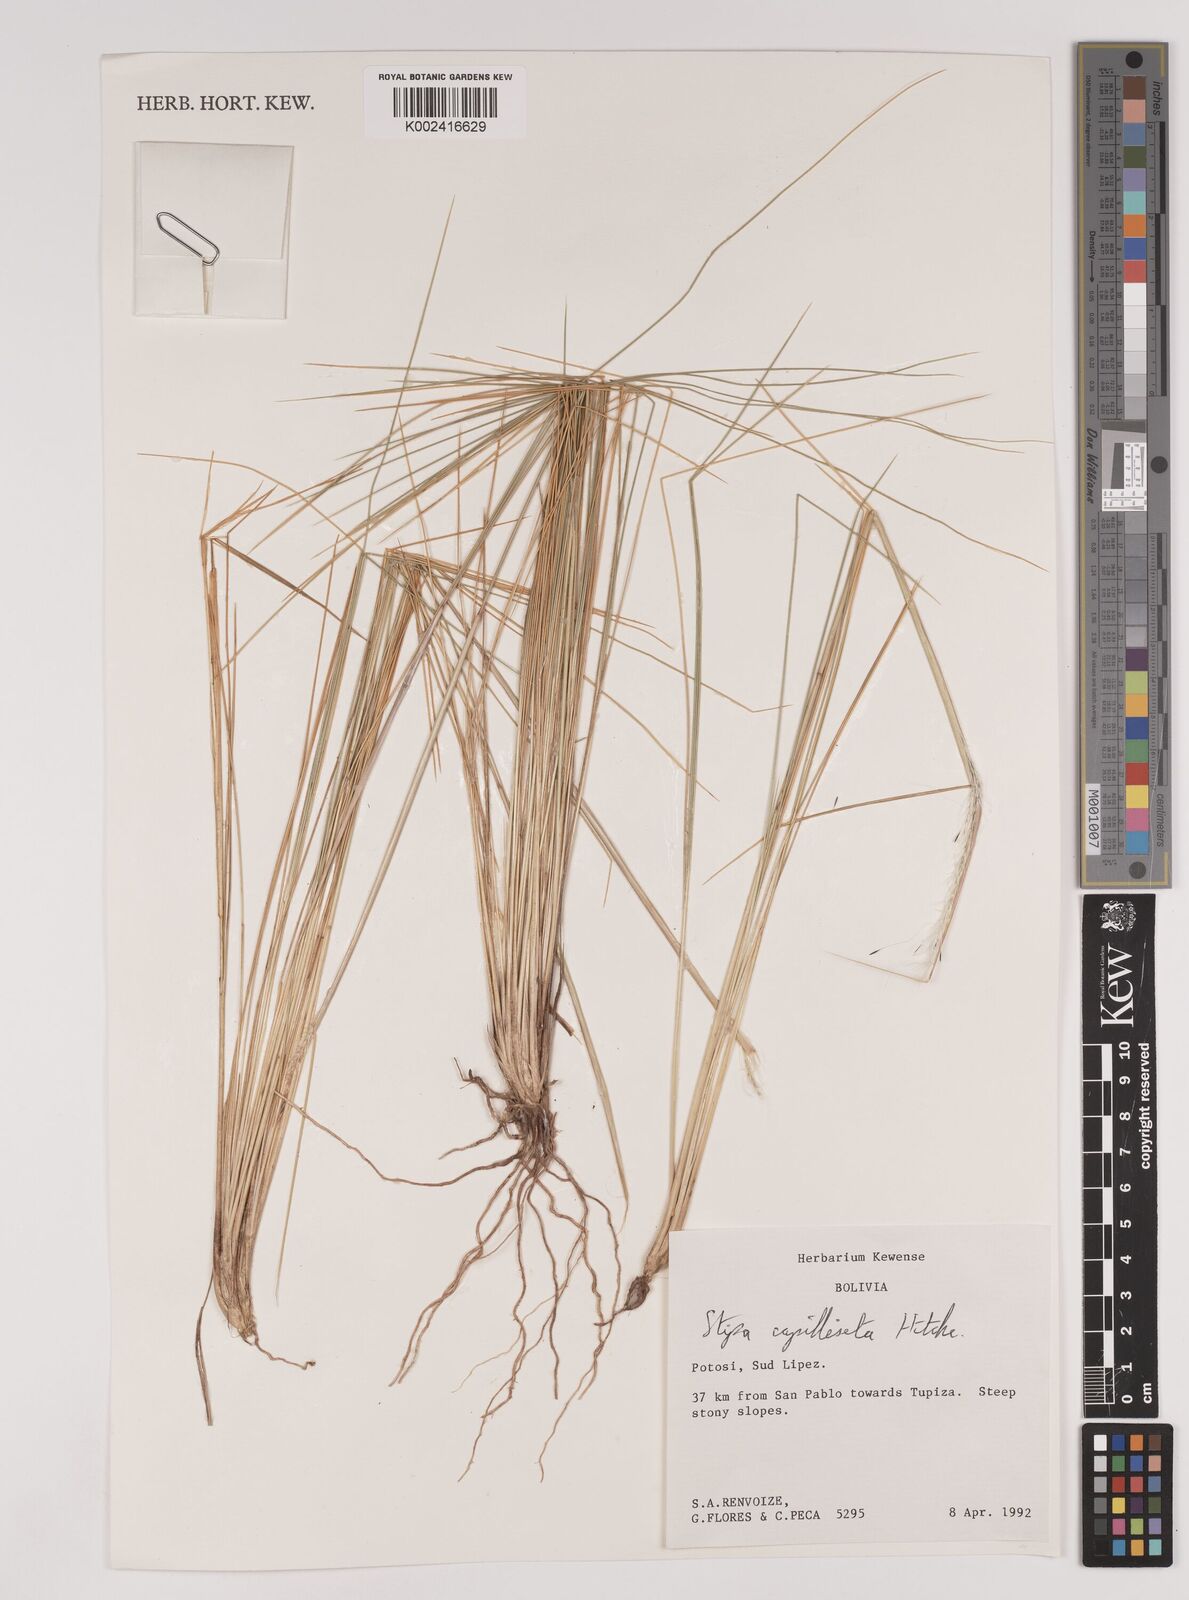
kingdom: Plantae
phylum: Tracheophyta
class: Liliopsida
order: Poales
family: Poaceae
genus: Jarava
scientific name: Jarava leptostachya
